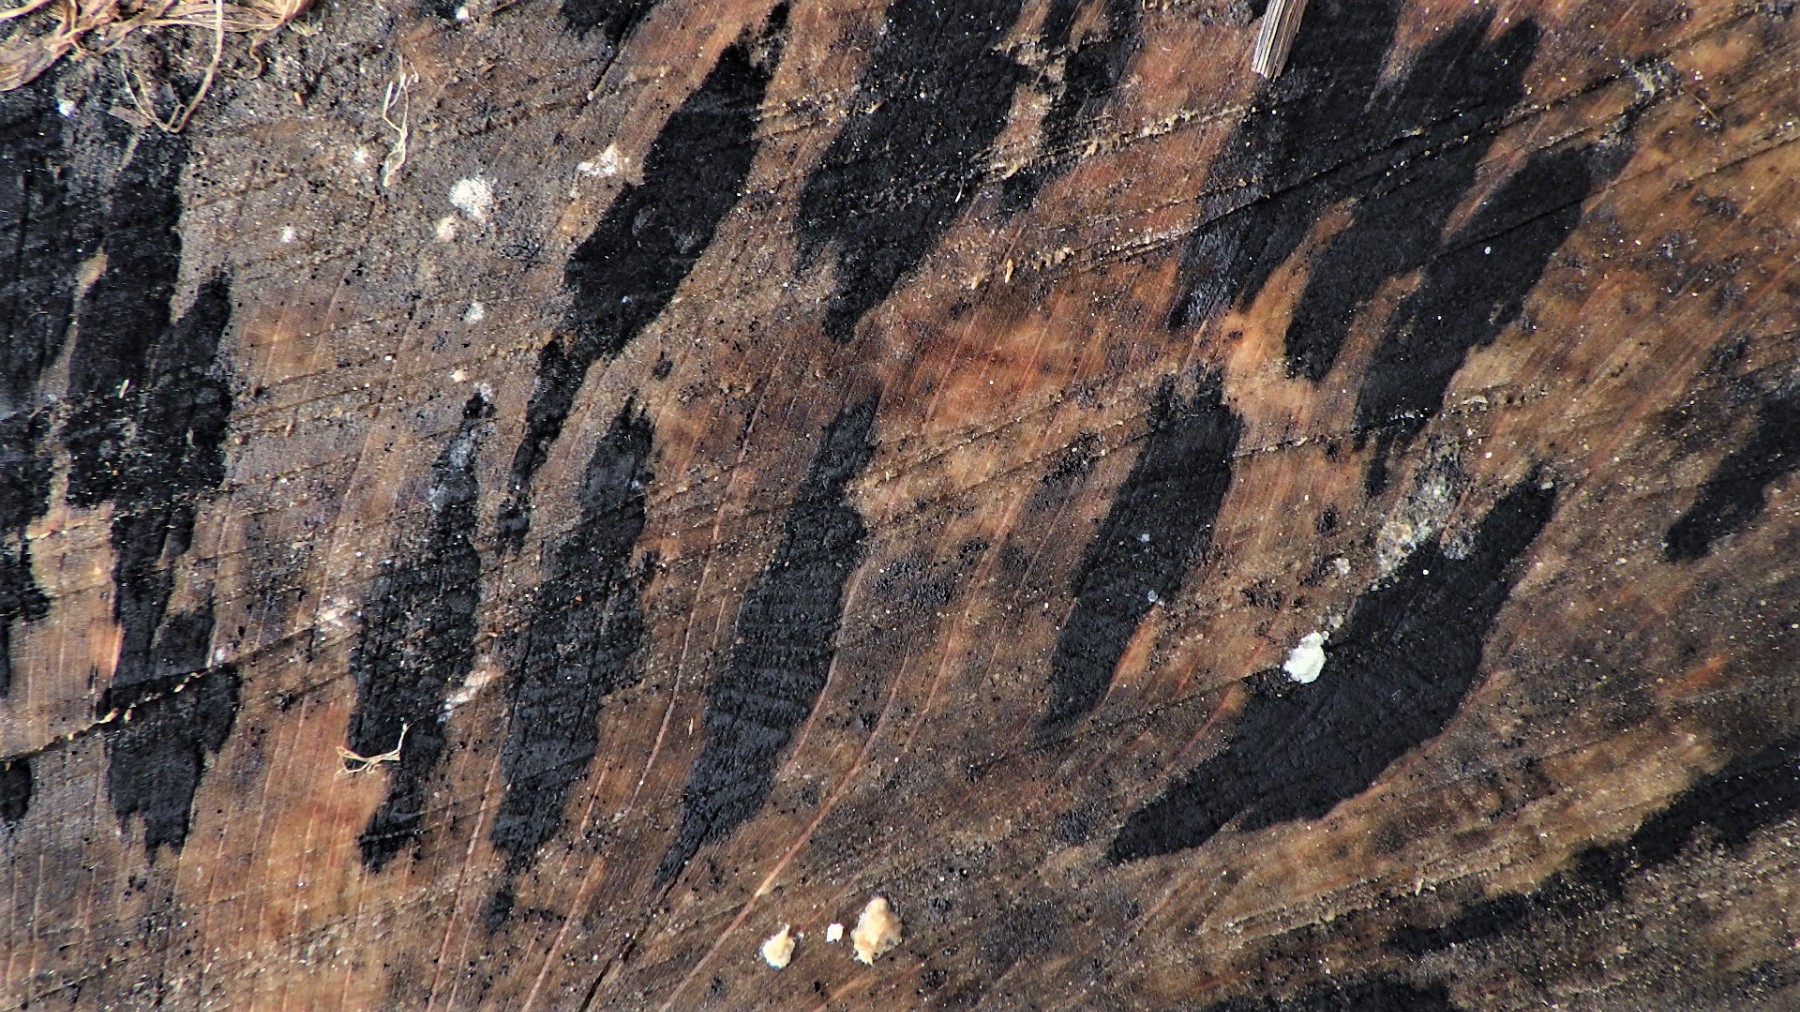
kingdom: Fungi
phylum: Ascomycota
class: Leotiomycetes
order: Helotiales
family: Helotiaceae
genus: Bispora
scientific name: Bispora pallescens
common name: måtte-snitskive
